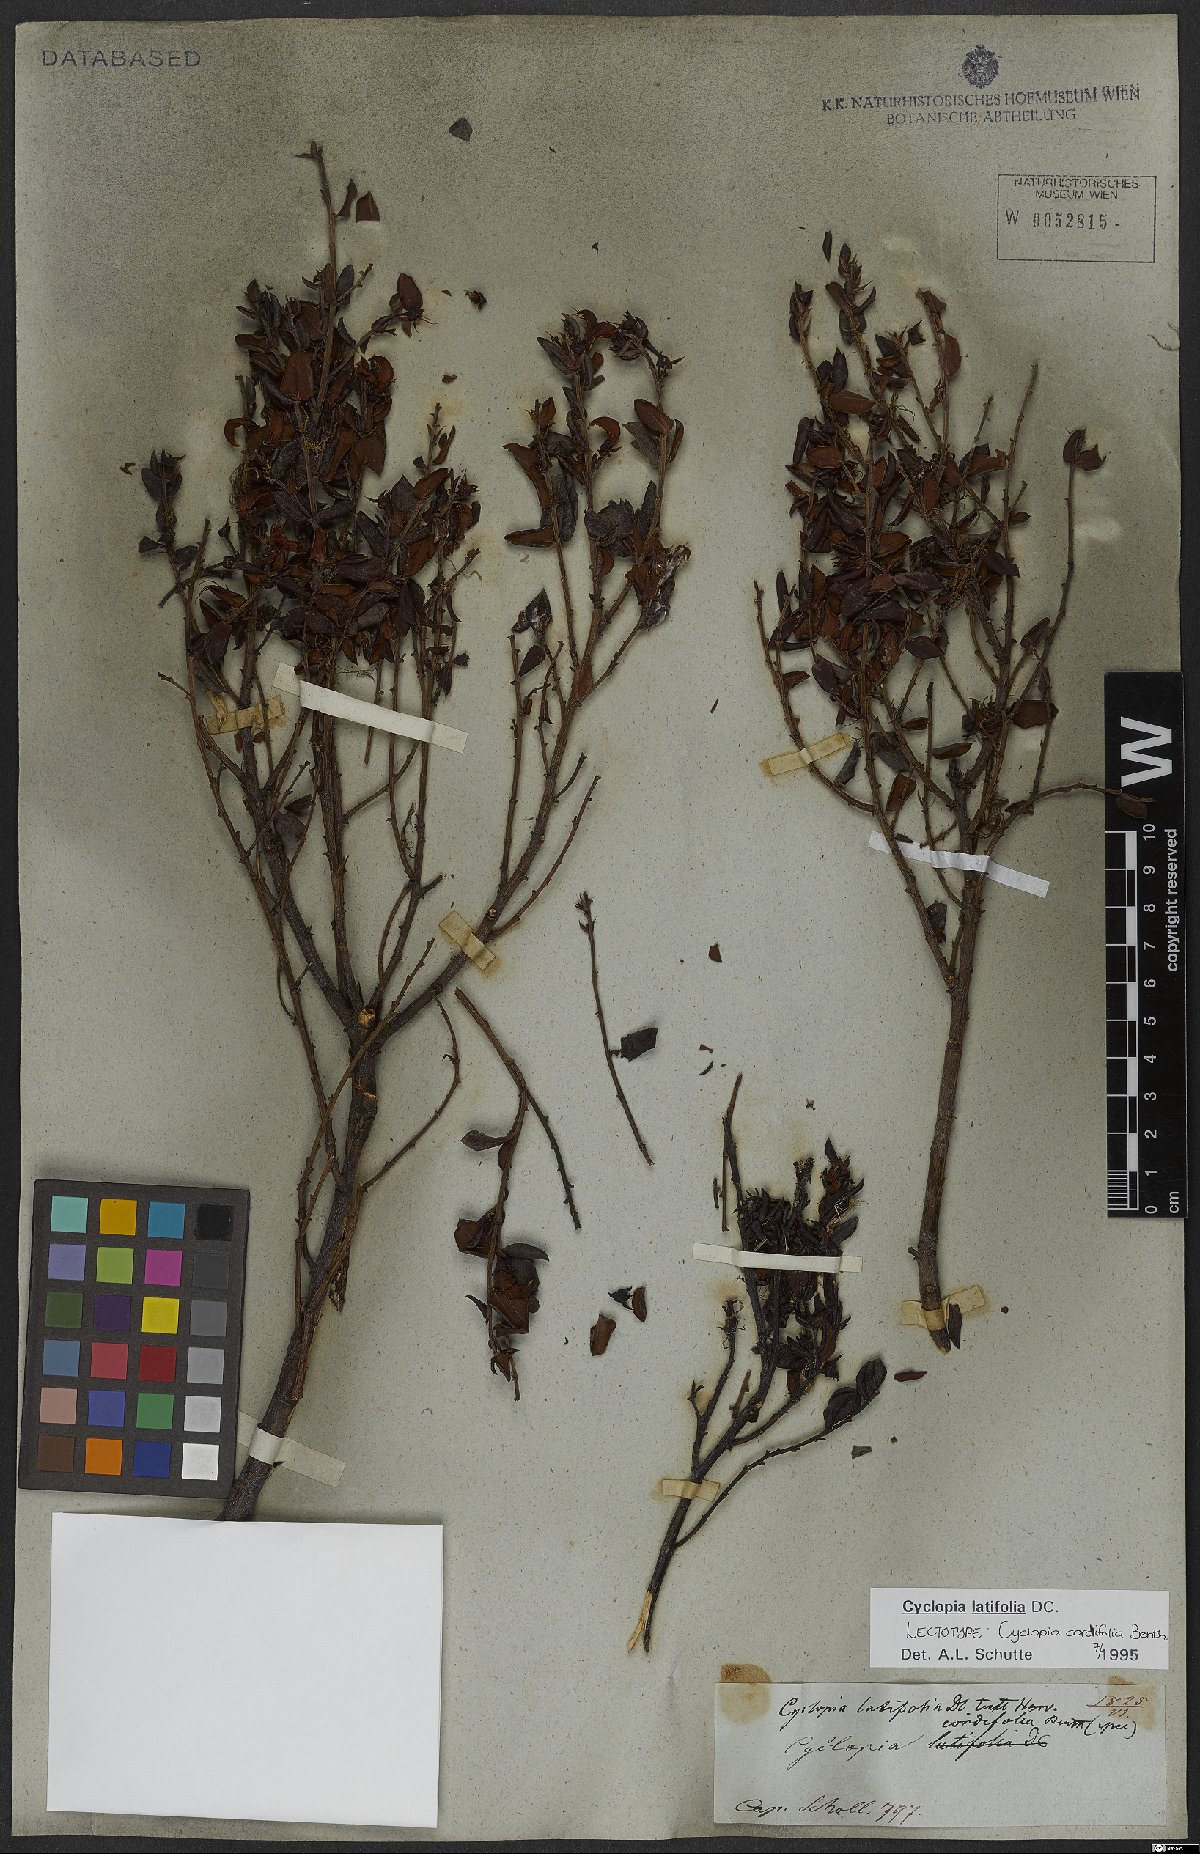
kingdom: Plantae
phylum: Tracheophyta
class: Magnoliopsida
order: Fabales
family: Fabaceae
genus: Cyclopia
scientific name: Cyclopia latifolia
